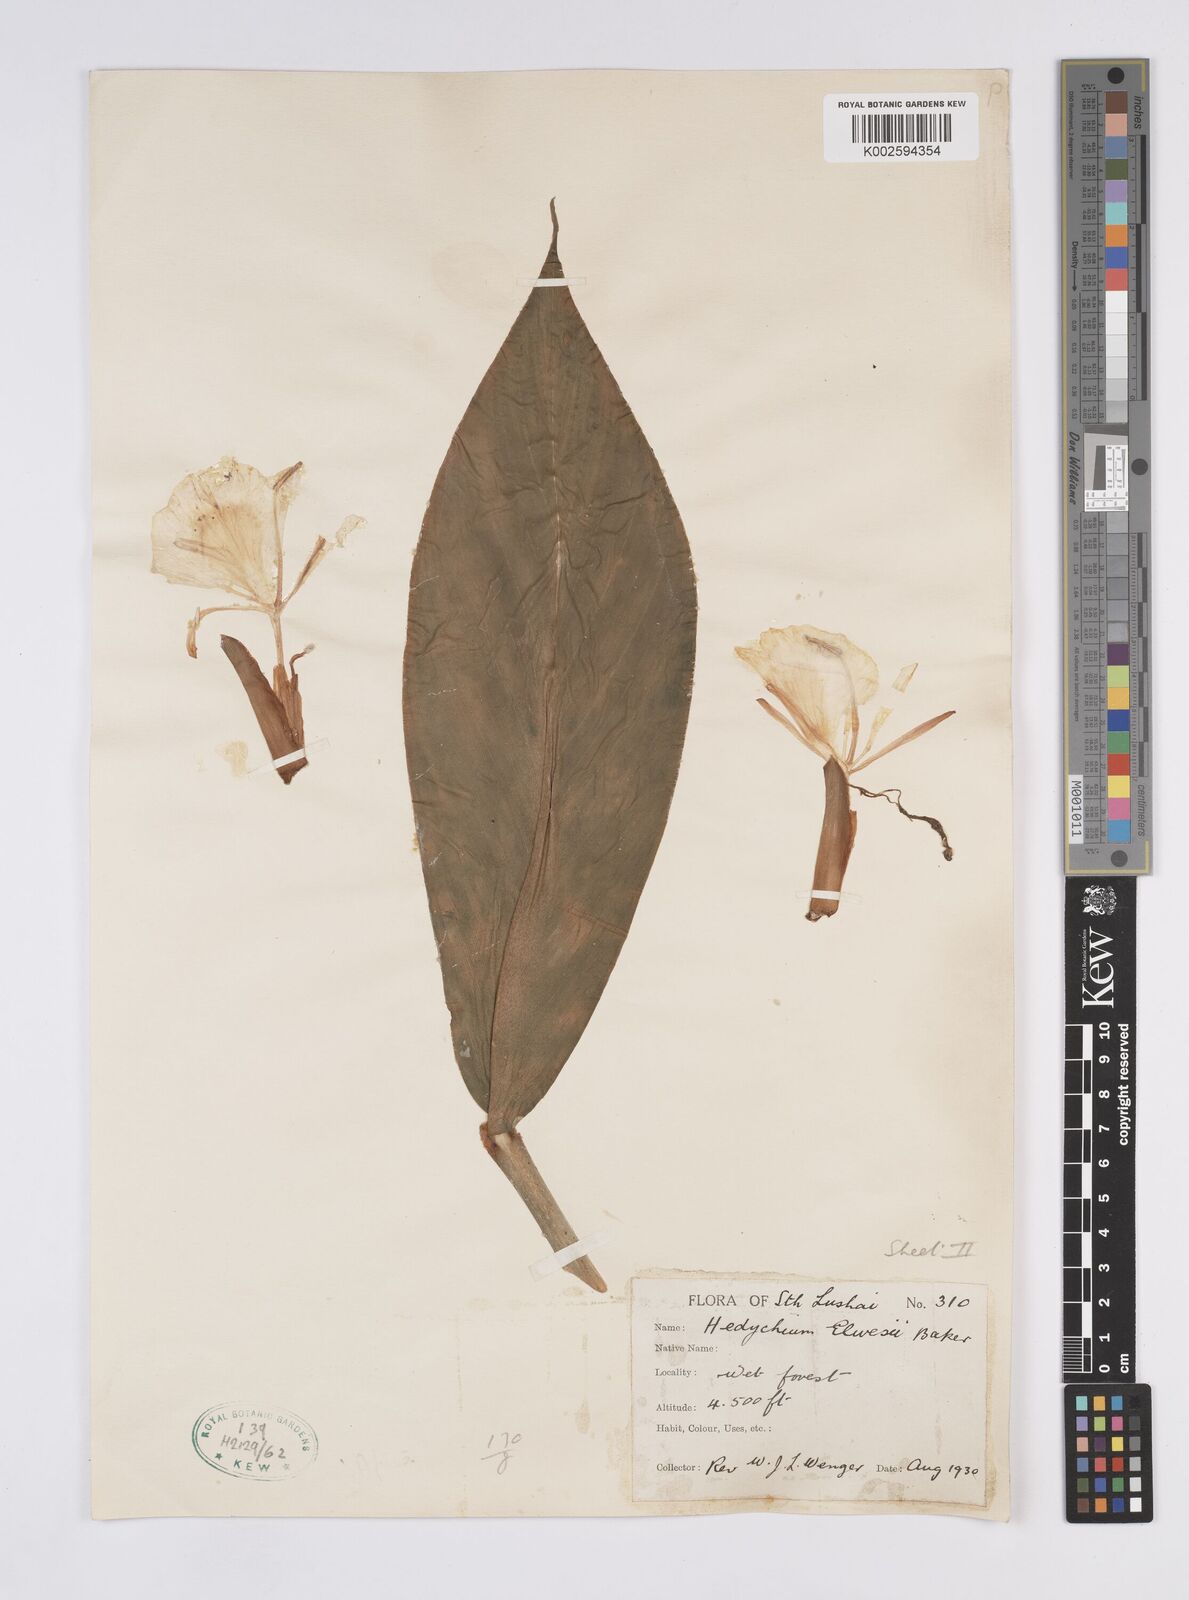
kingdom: Plantae
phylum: Tracheophyta
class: Liliopsida
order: Zingiberales
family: Zingiberaceae
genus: Hedychium
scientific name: Hedychium elwesii
